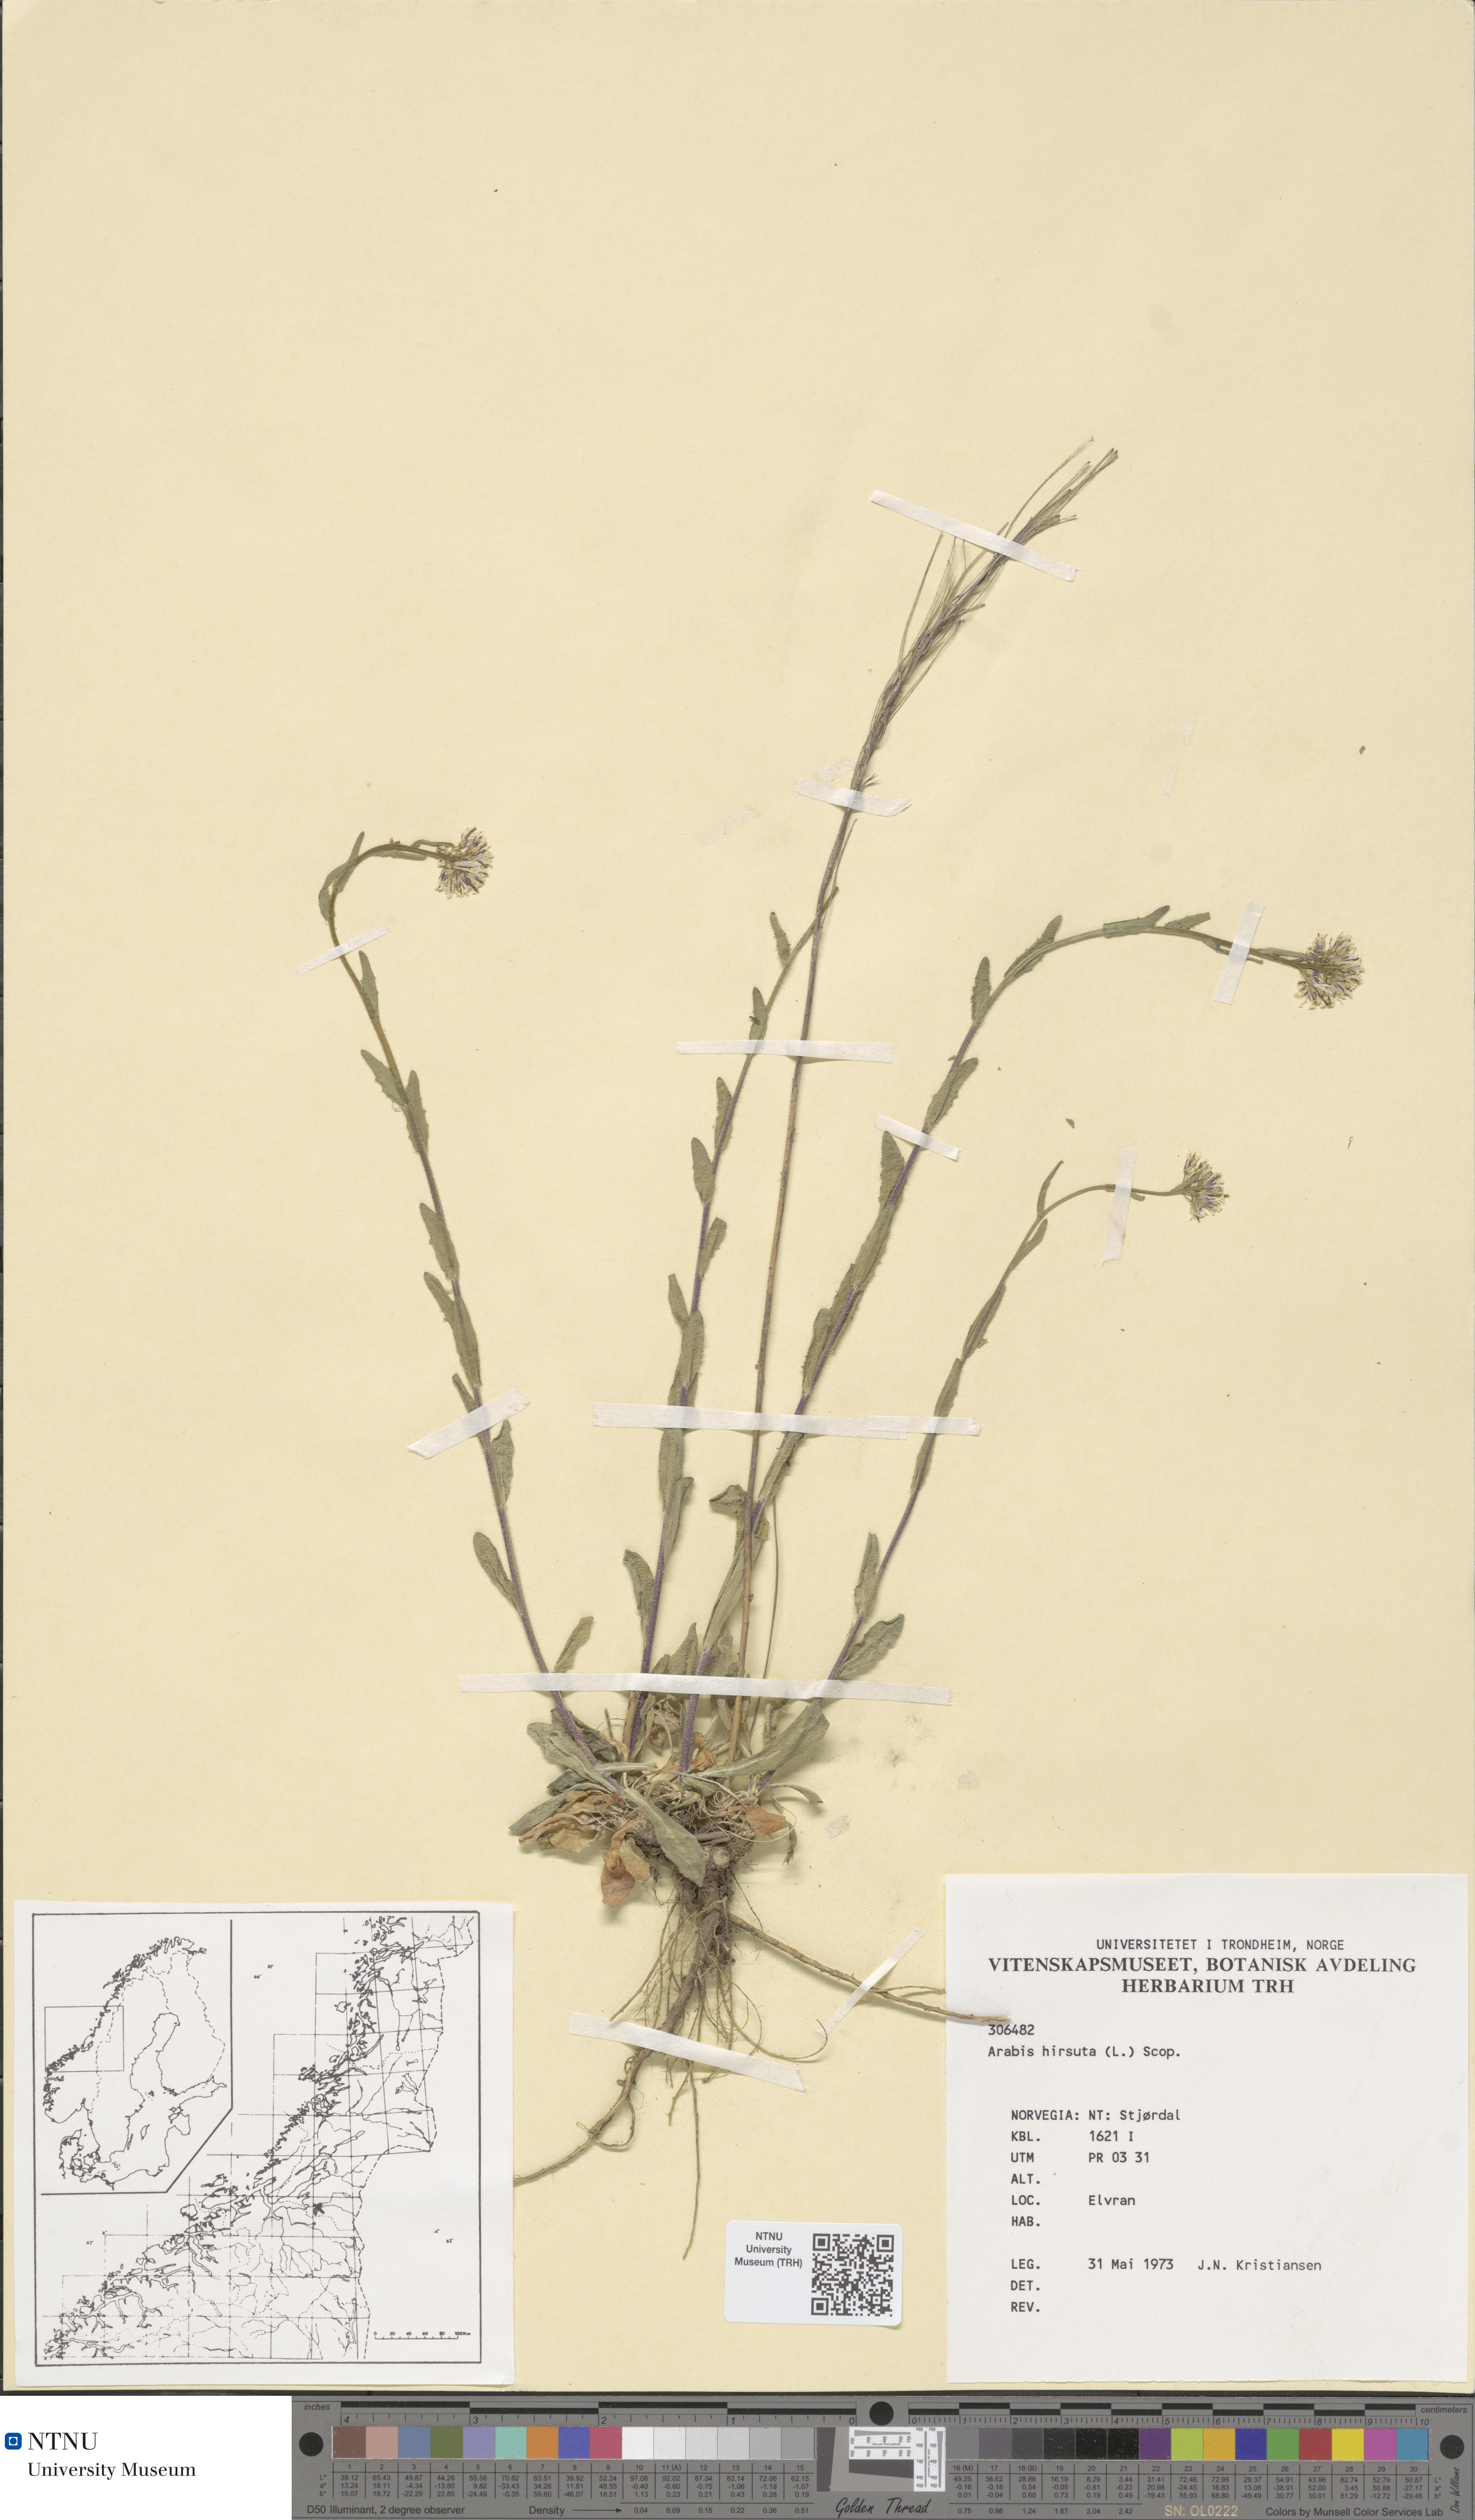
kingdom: Plantae
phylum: Tracheophyta
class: Magnoliopsida
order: Brassicales
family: Brassicaceae
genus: Arabis
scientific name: Arabis hirsuta
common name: Hairy rock-cress
